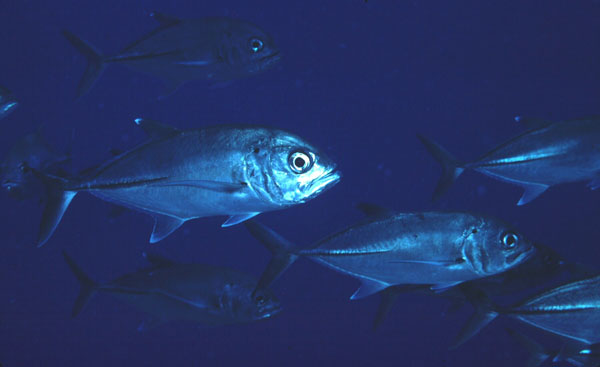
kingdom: Animalia
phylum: Chordata
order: Perciformes
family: Carangidae
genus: Caranx
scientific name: Caranx sexfasciatus
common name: Bigeye trevally
